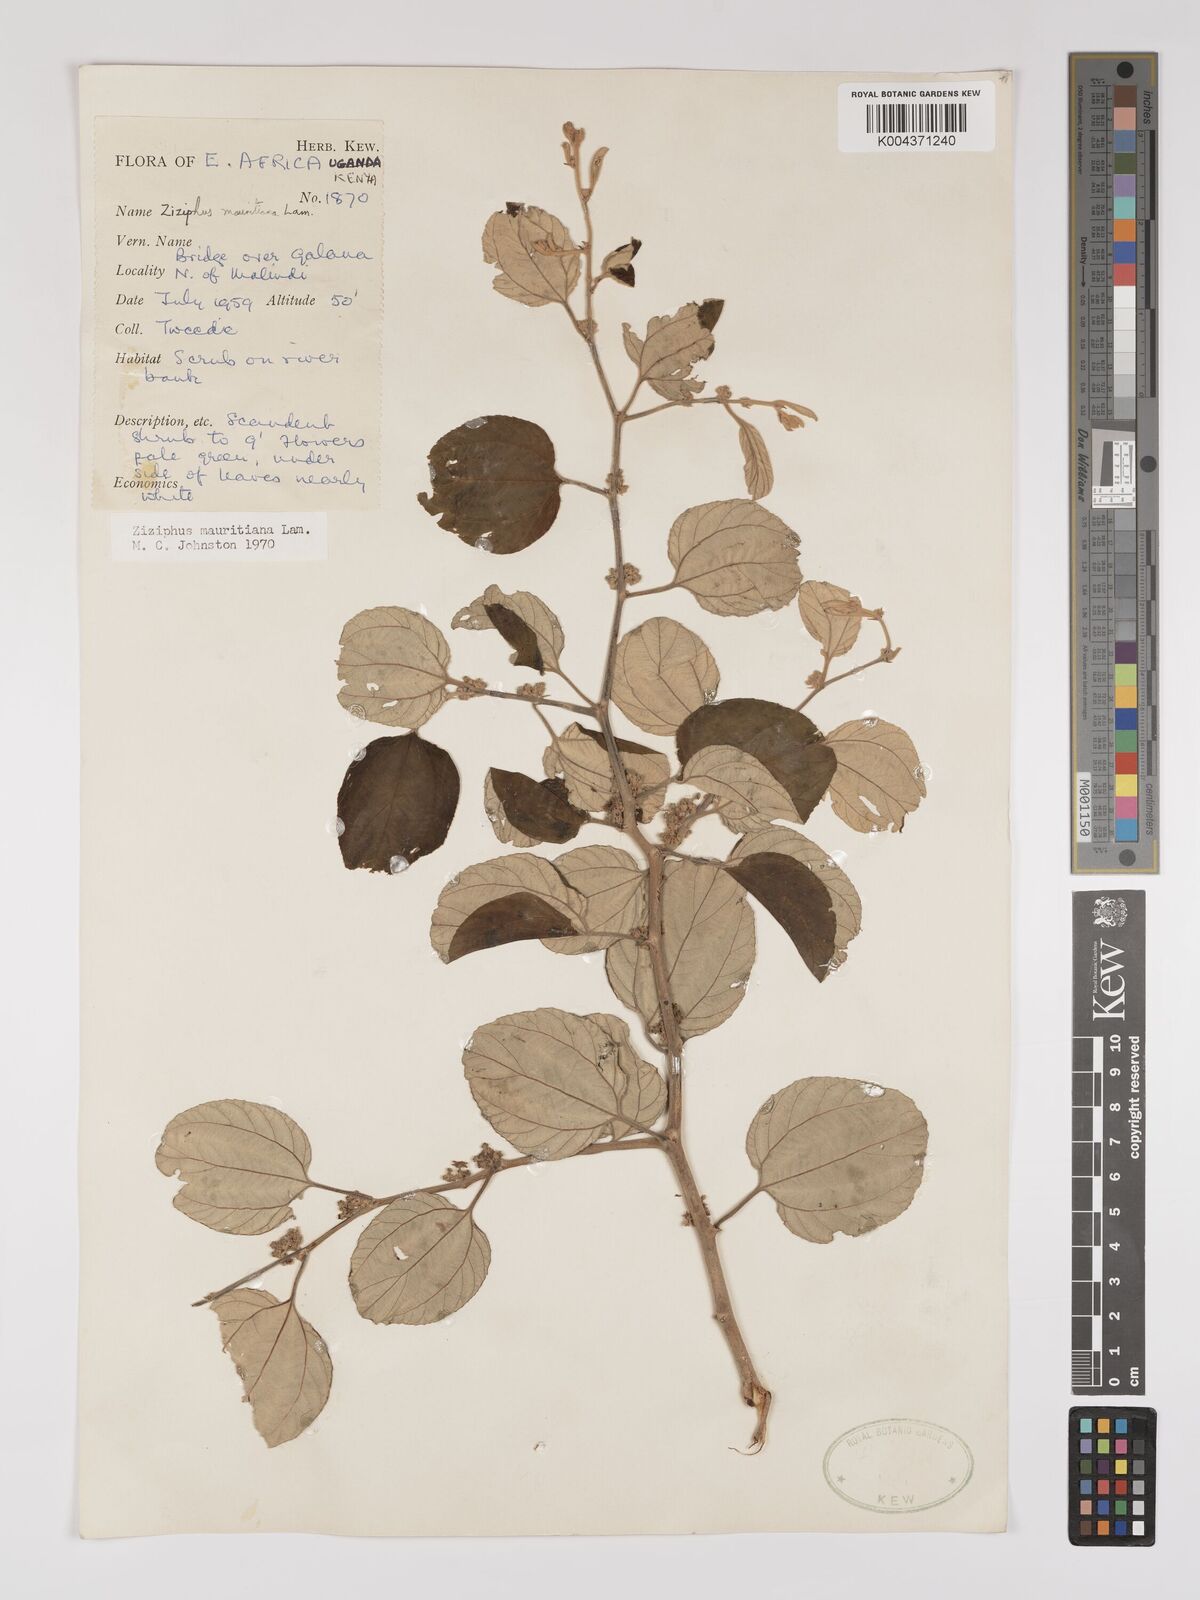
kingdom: Plantae
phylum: Tracheophyta
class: Magnoliopsida
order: Rosales
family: Rhamnaceae
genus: Ziziphus
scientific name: Ziziphus mauritiana
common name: Indian jujube
